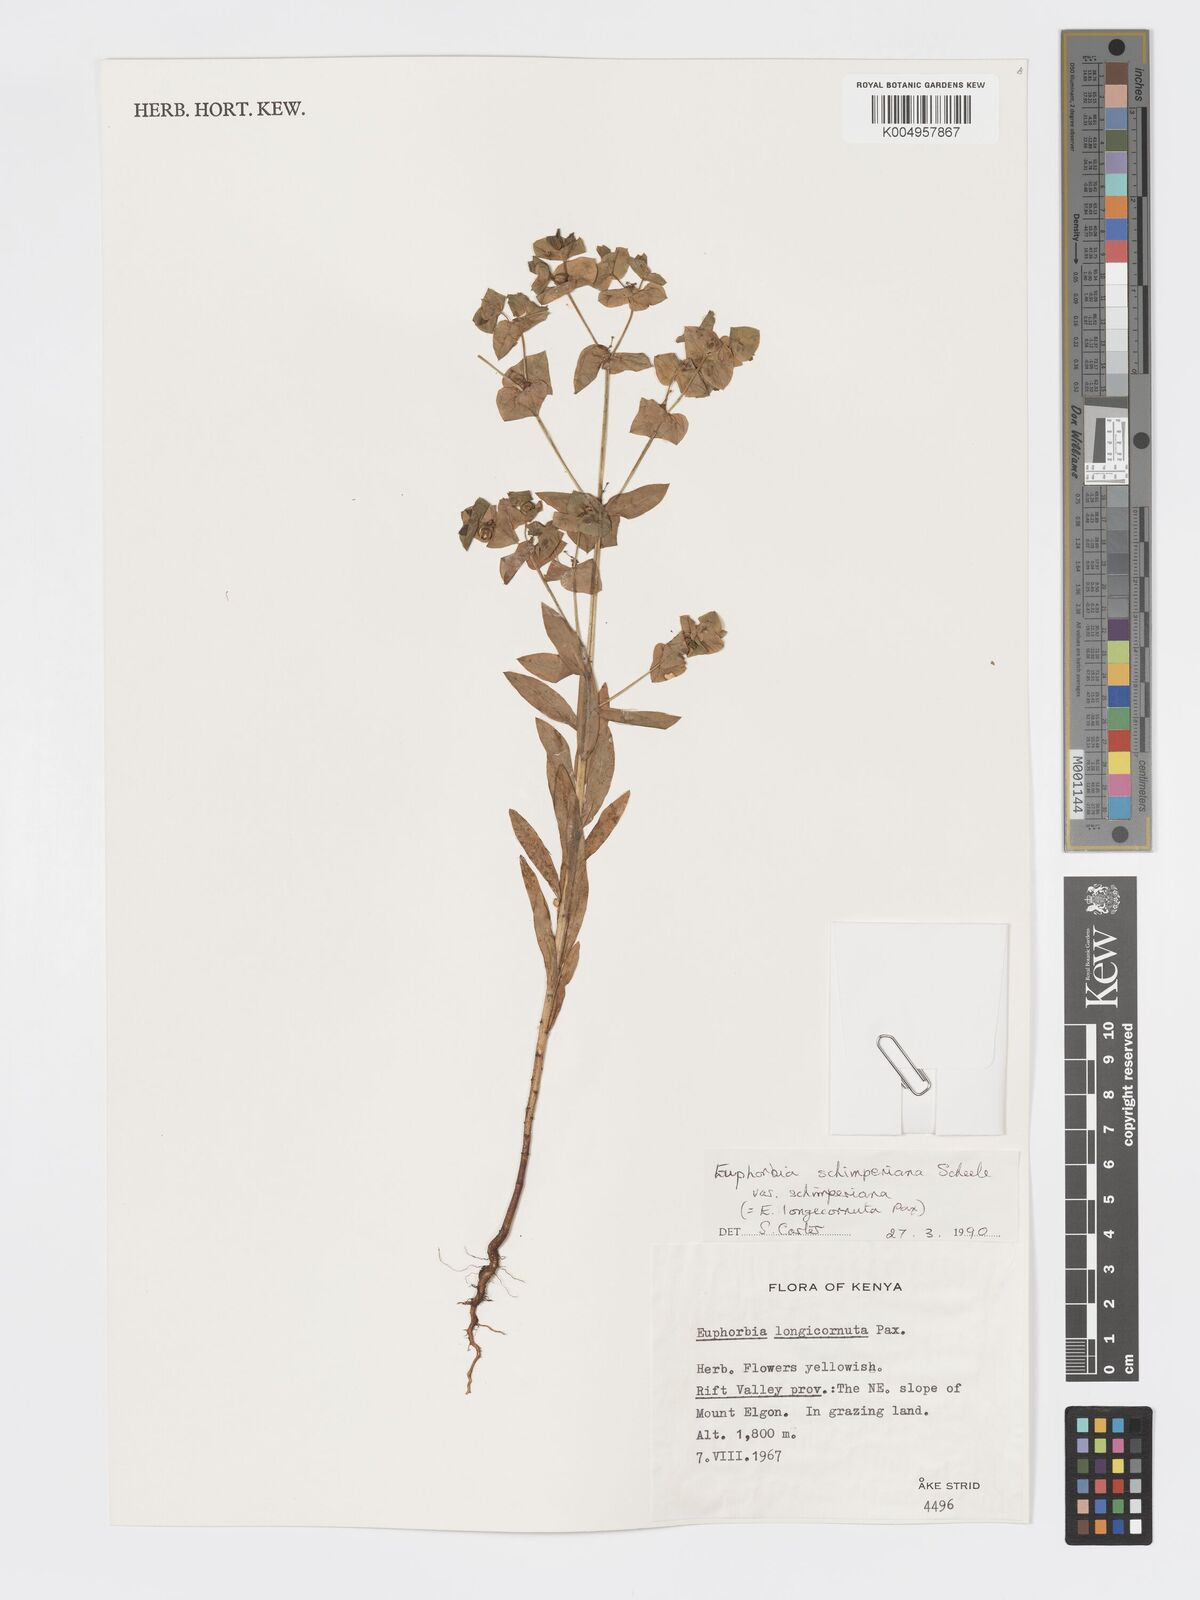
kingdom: Plantae
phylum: Tracheophyta
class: Magnoliopsida
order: Malpighiales
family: Euphorbiaceae
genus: Euphorbia
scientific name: Euphorbia schimperiana
